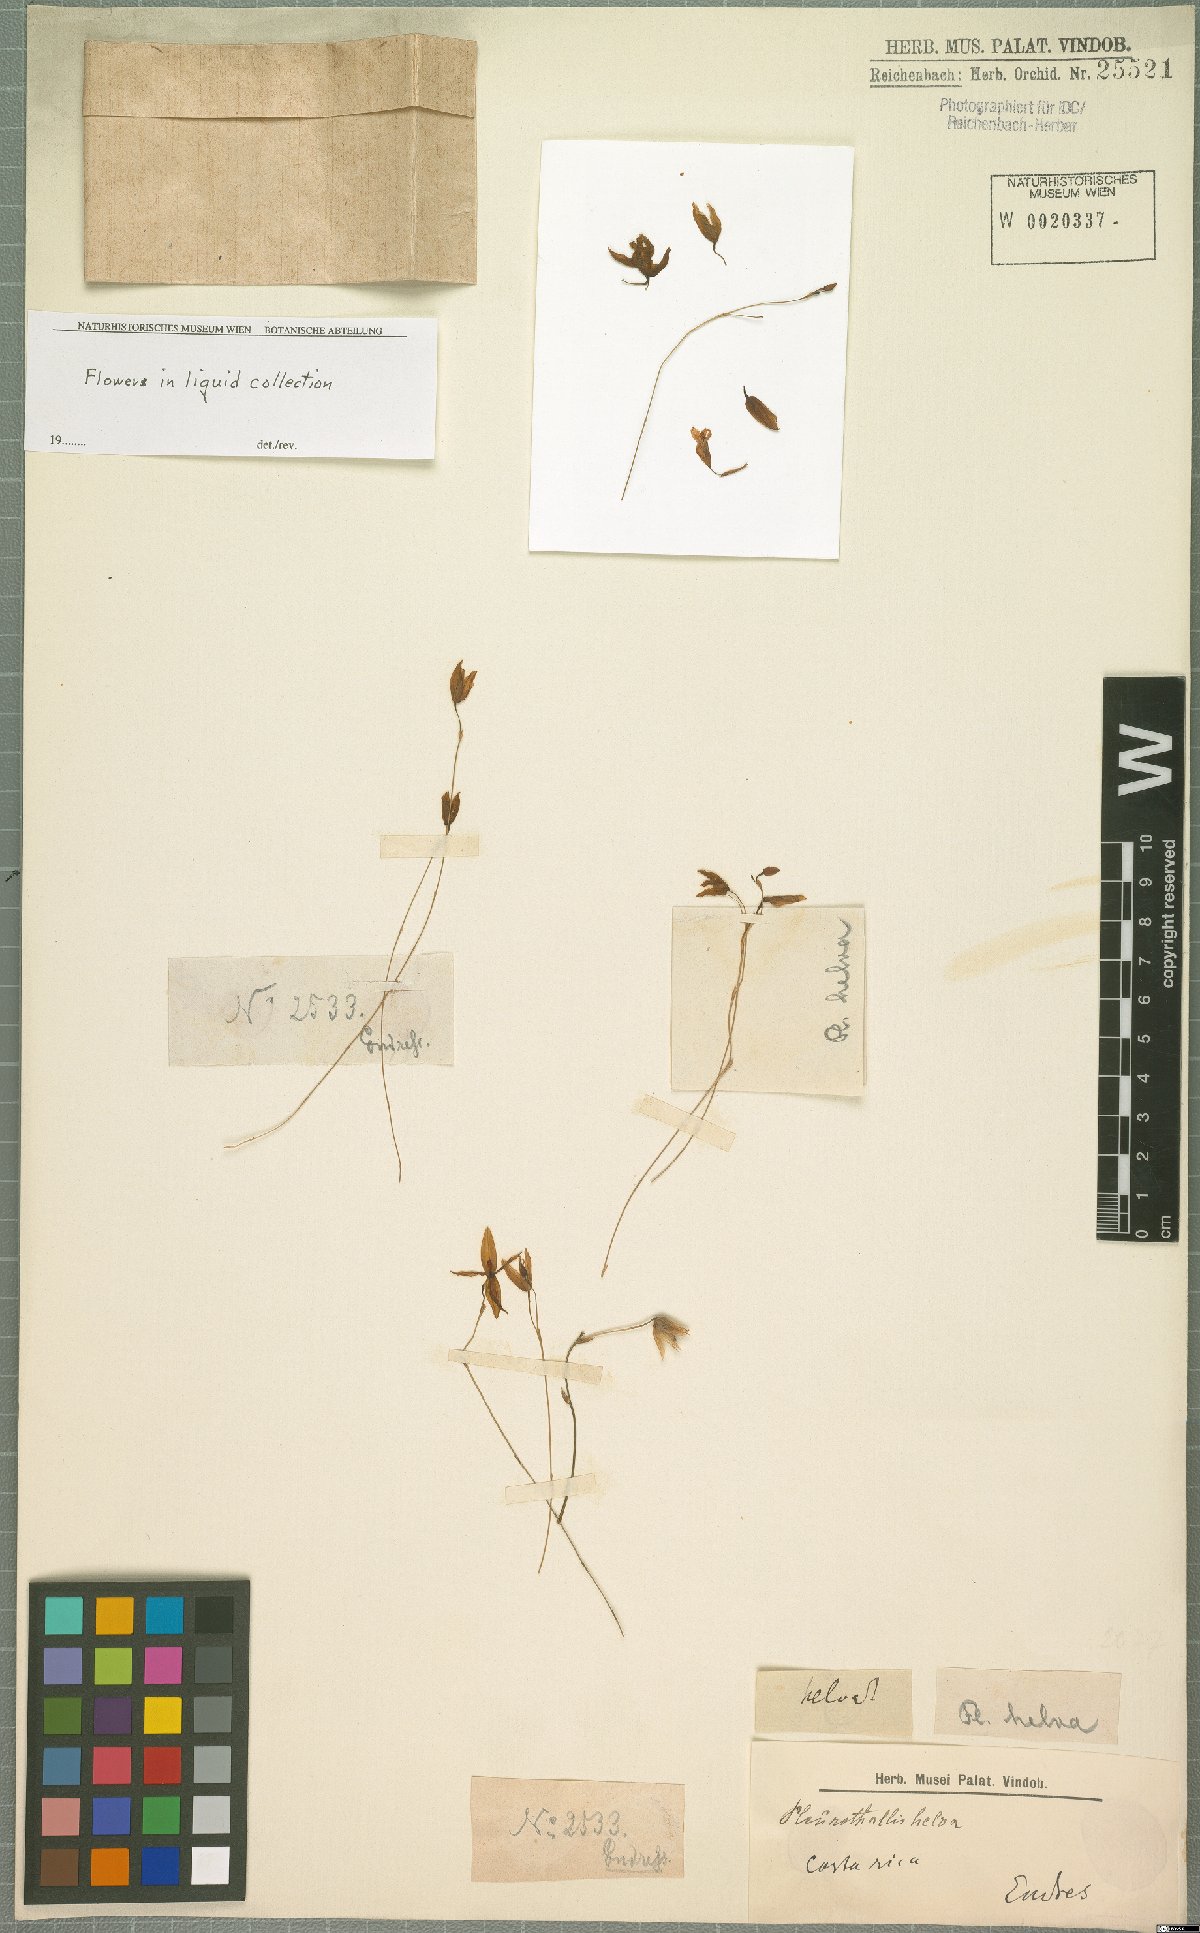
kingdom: Plantae
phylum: Tracheophyta
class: Liliopsida
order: Asparagales
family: Orchidaceae
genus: Pleurothallis
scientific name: Pleurothallis
